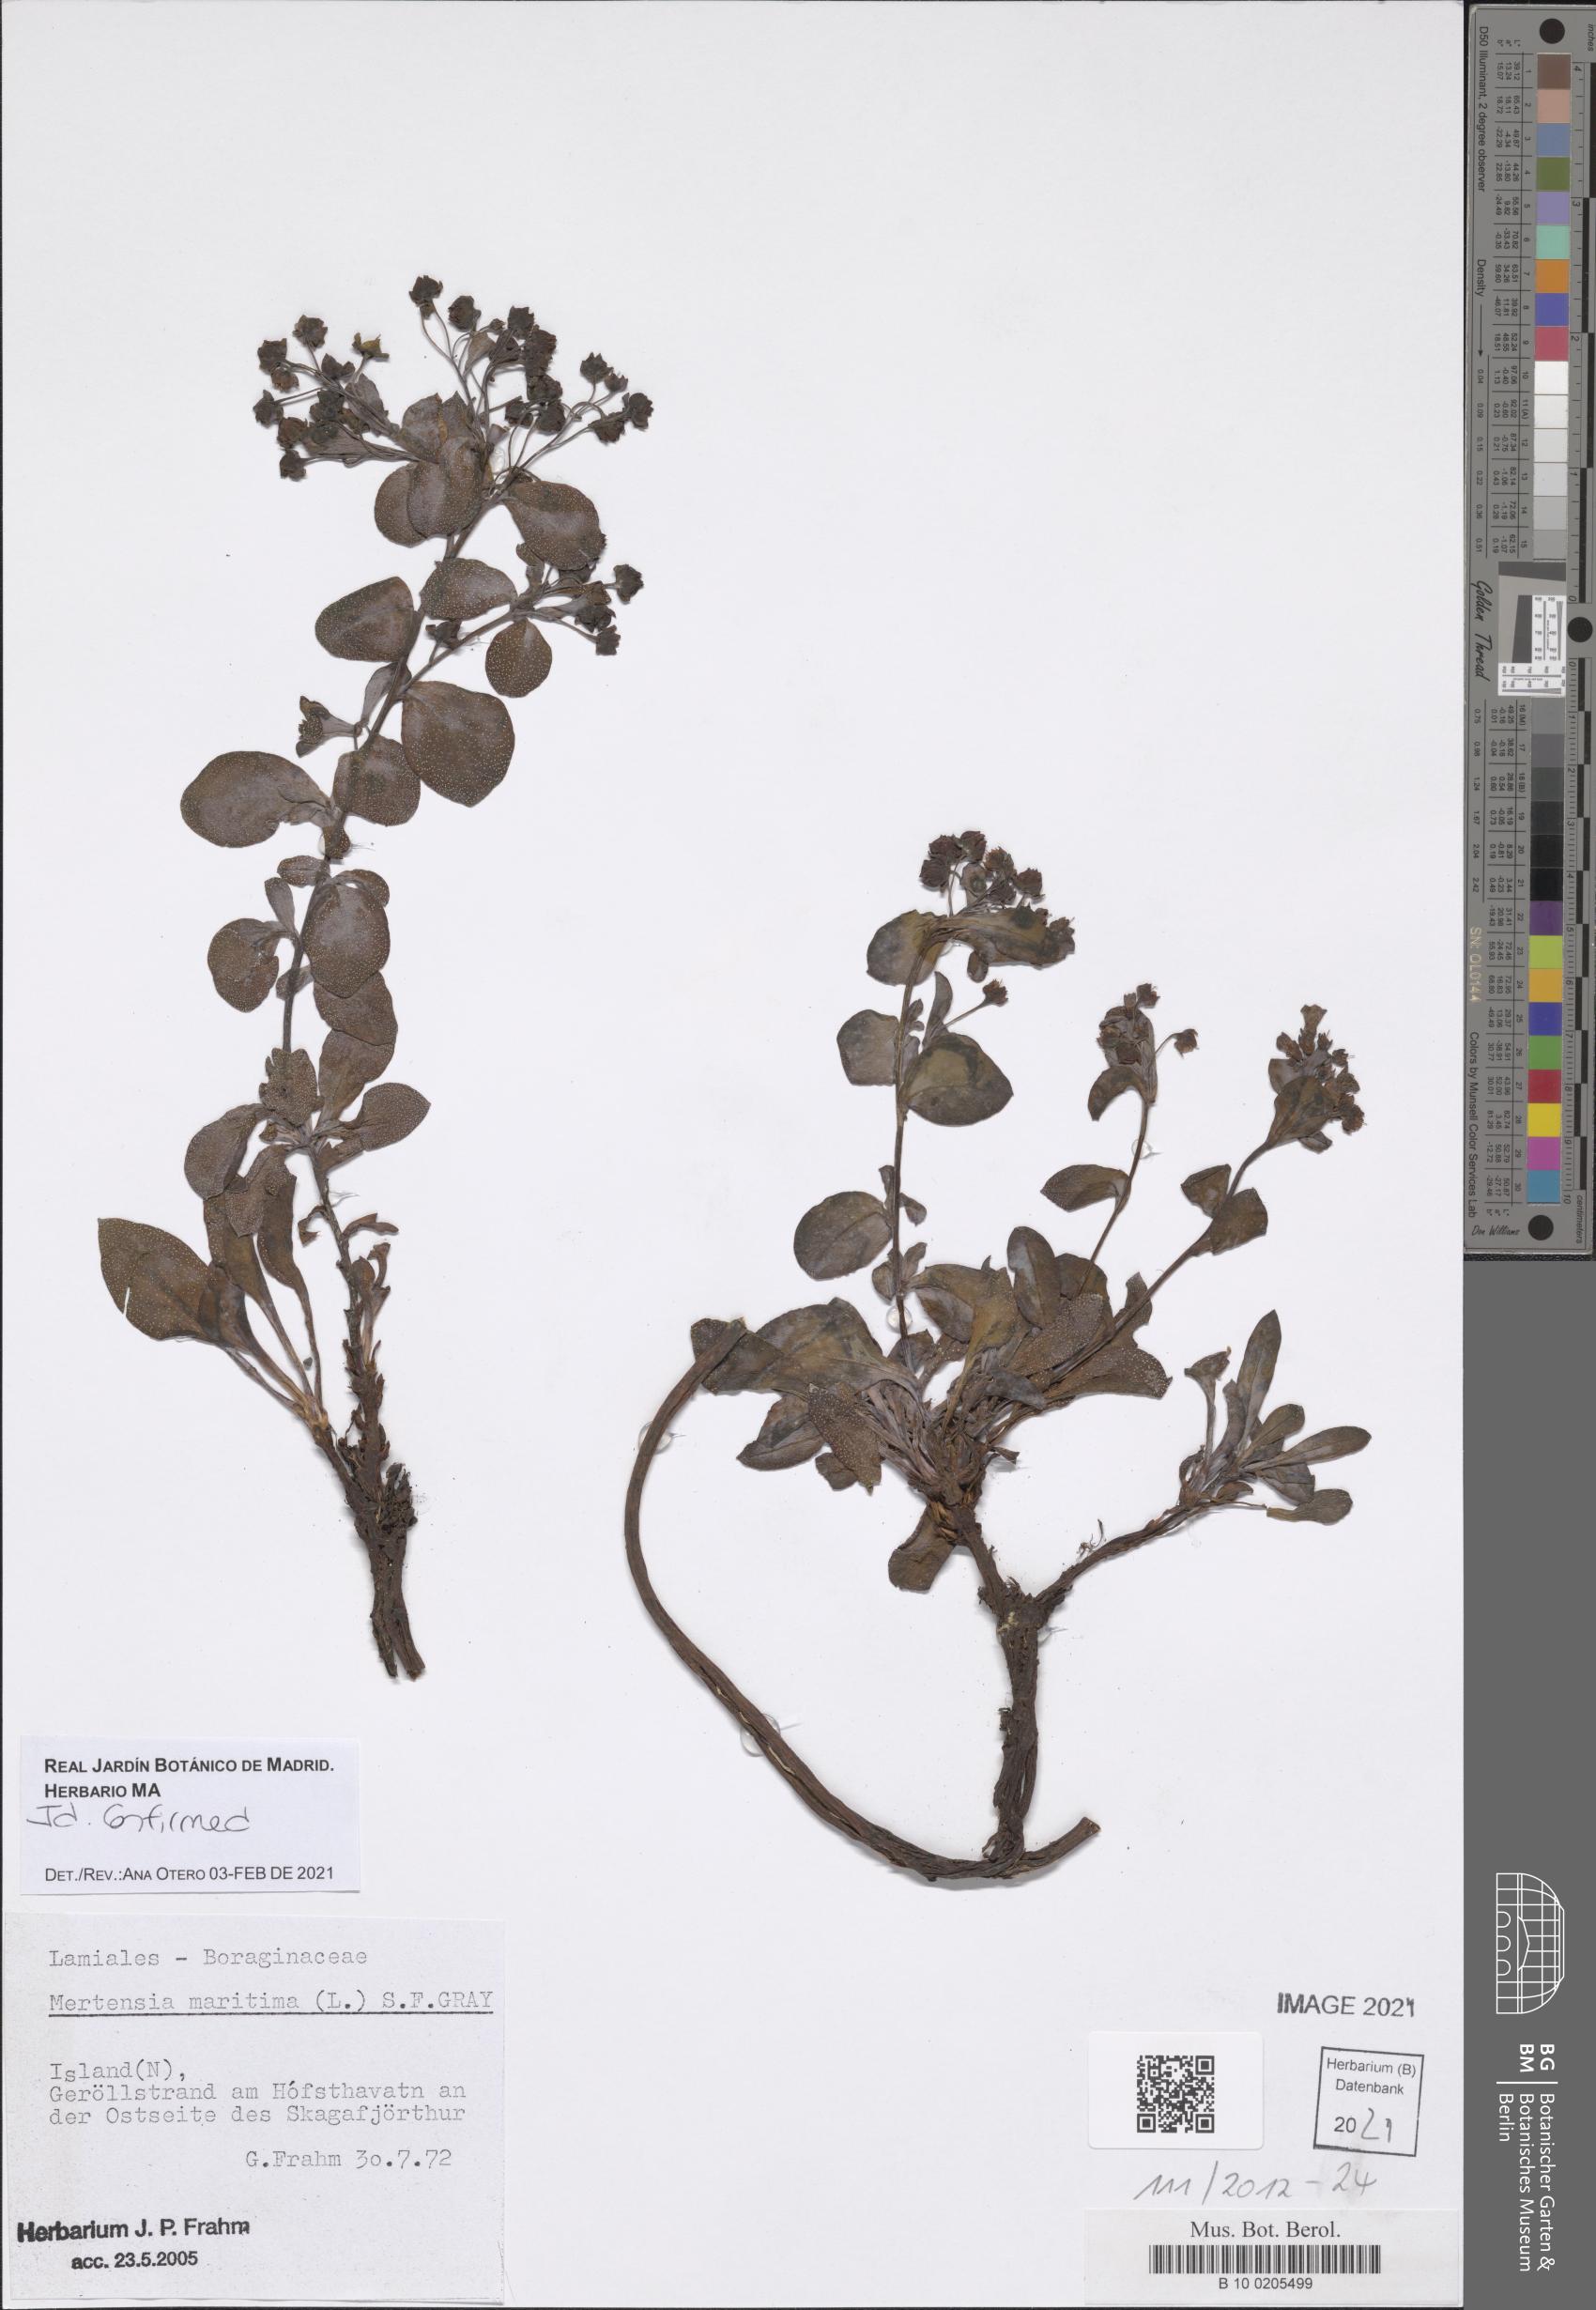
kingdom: Plantae
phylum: Tracheophyta
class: Magnoliopsida
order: Boraginales
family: Boraginaceae
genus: Mertensia
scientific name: Mertensia maritima
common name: Oysterplant
